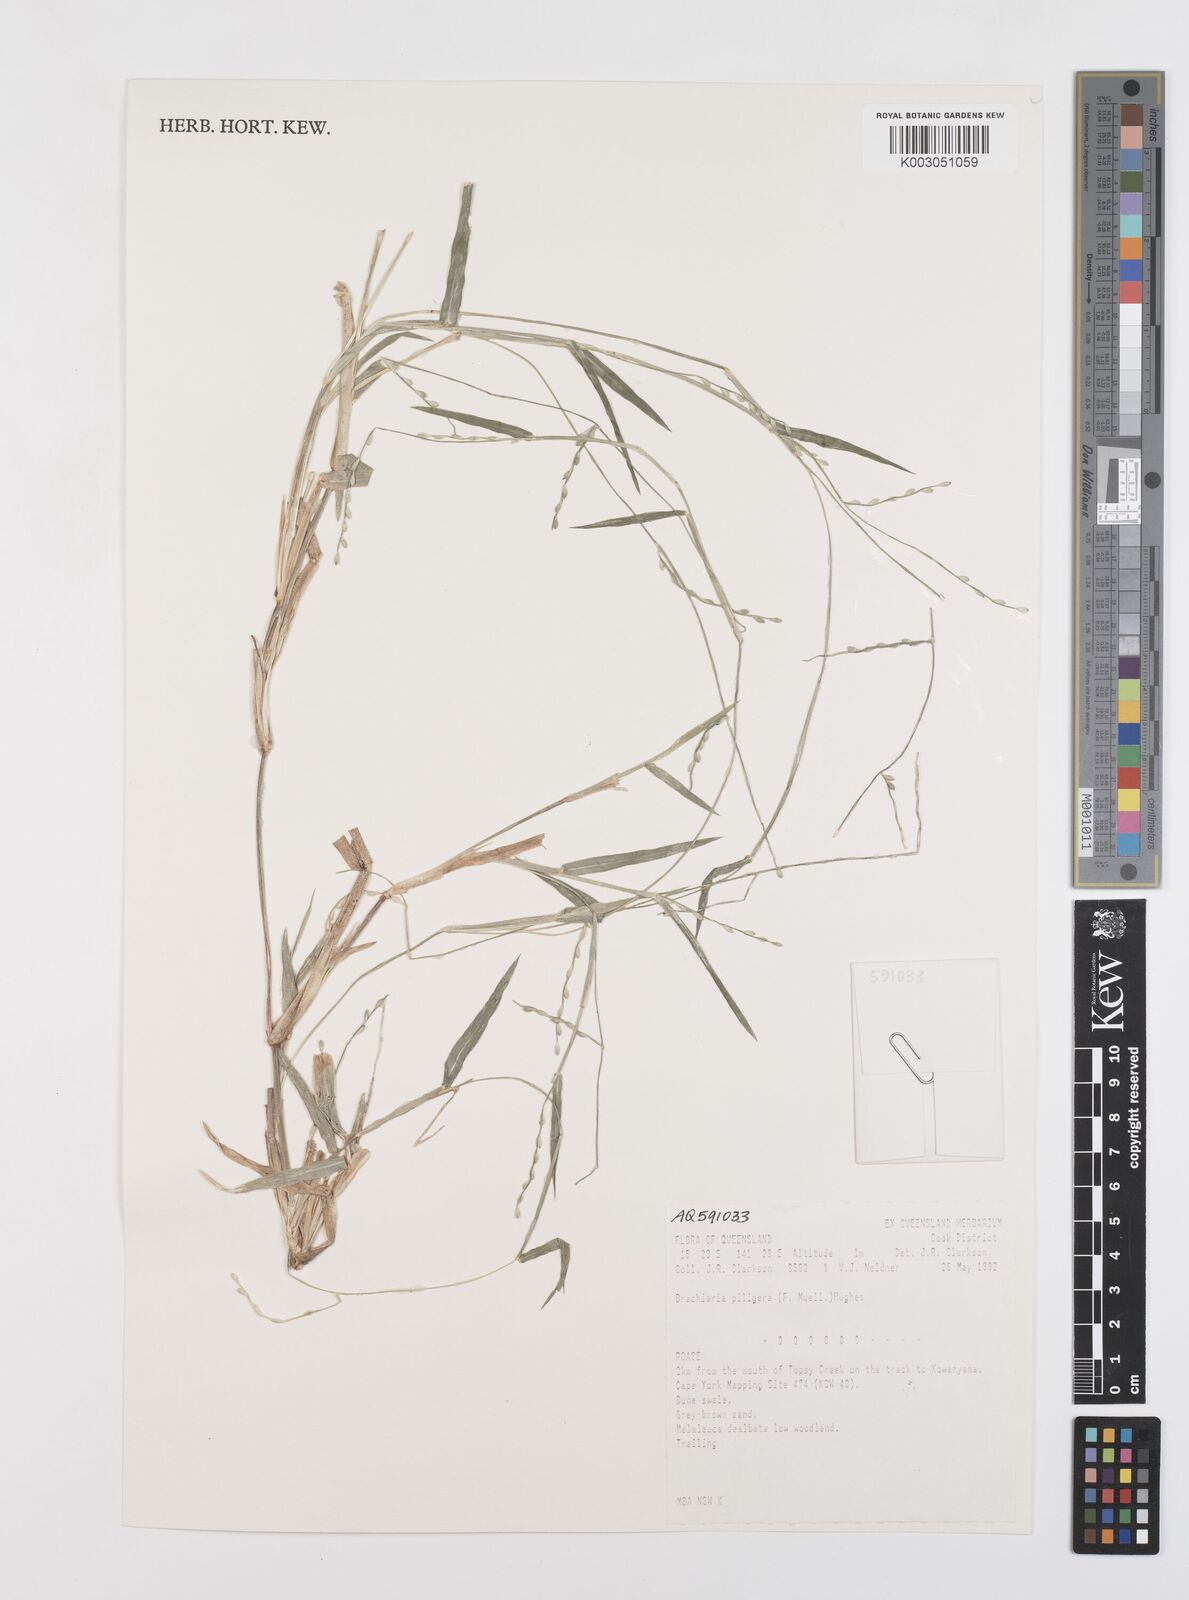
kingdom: Plantae
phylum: Tracheophyta
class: Liliopsida
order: Poales
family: Poaceae
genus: Urochloa
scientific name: Urochloa piligera
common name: Wattle signalgrass
